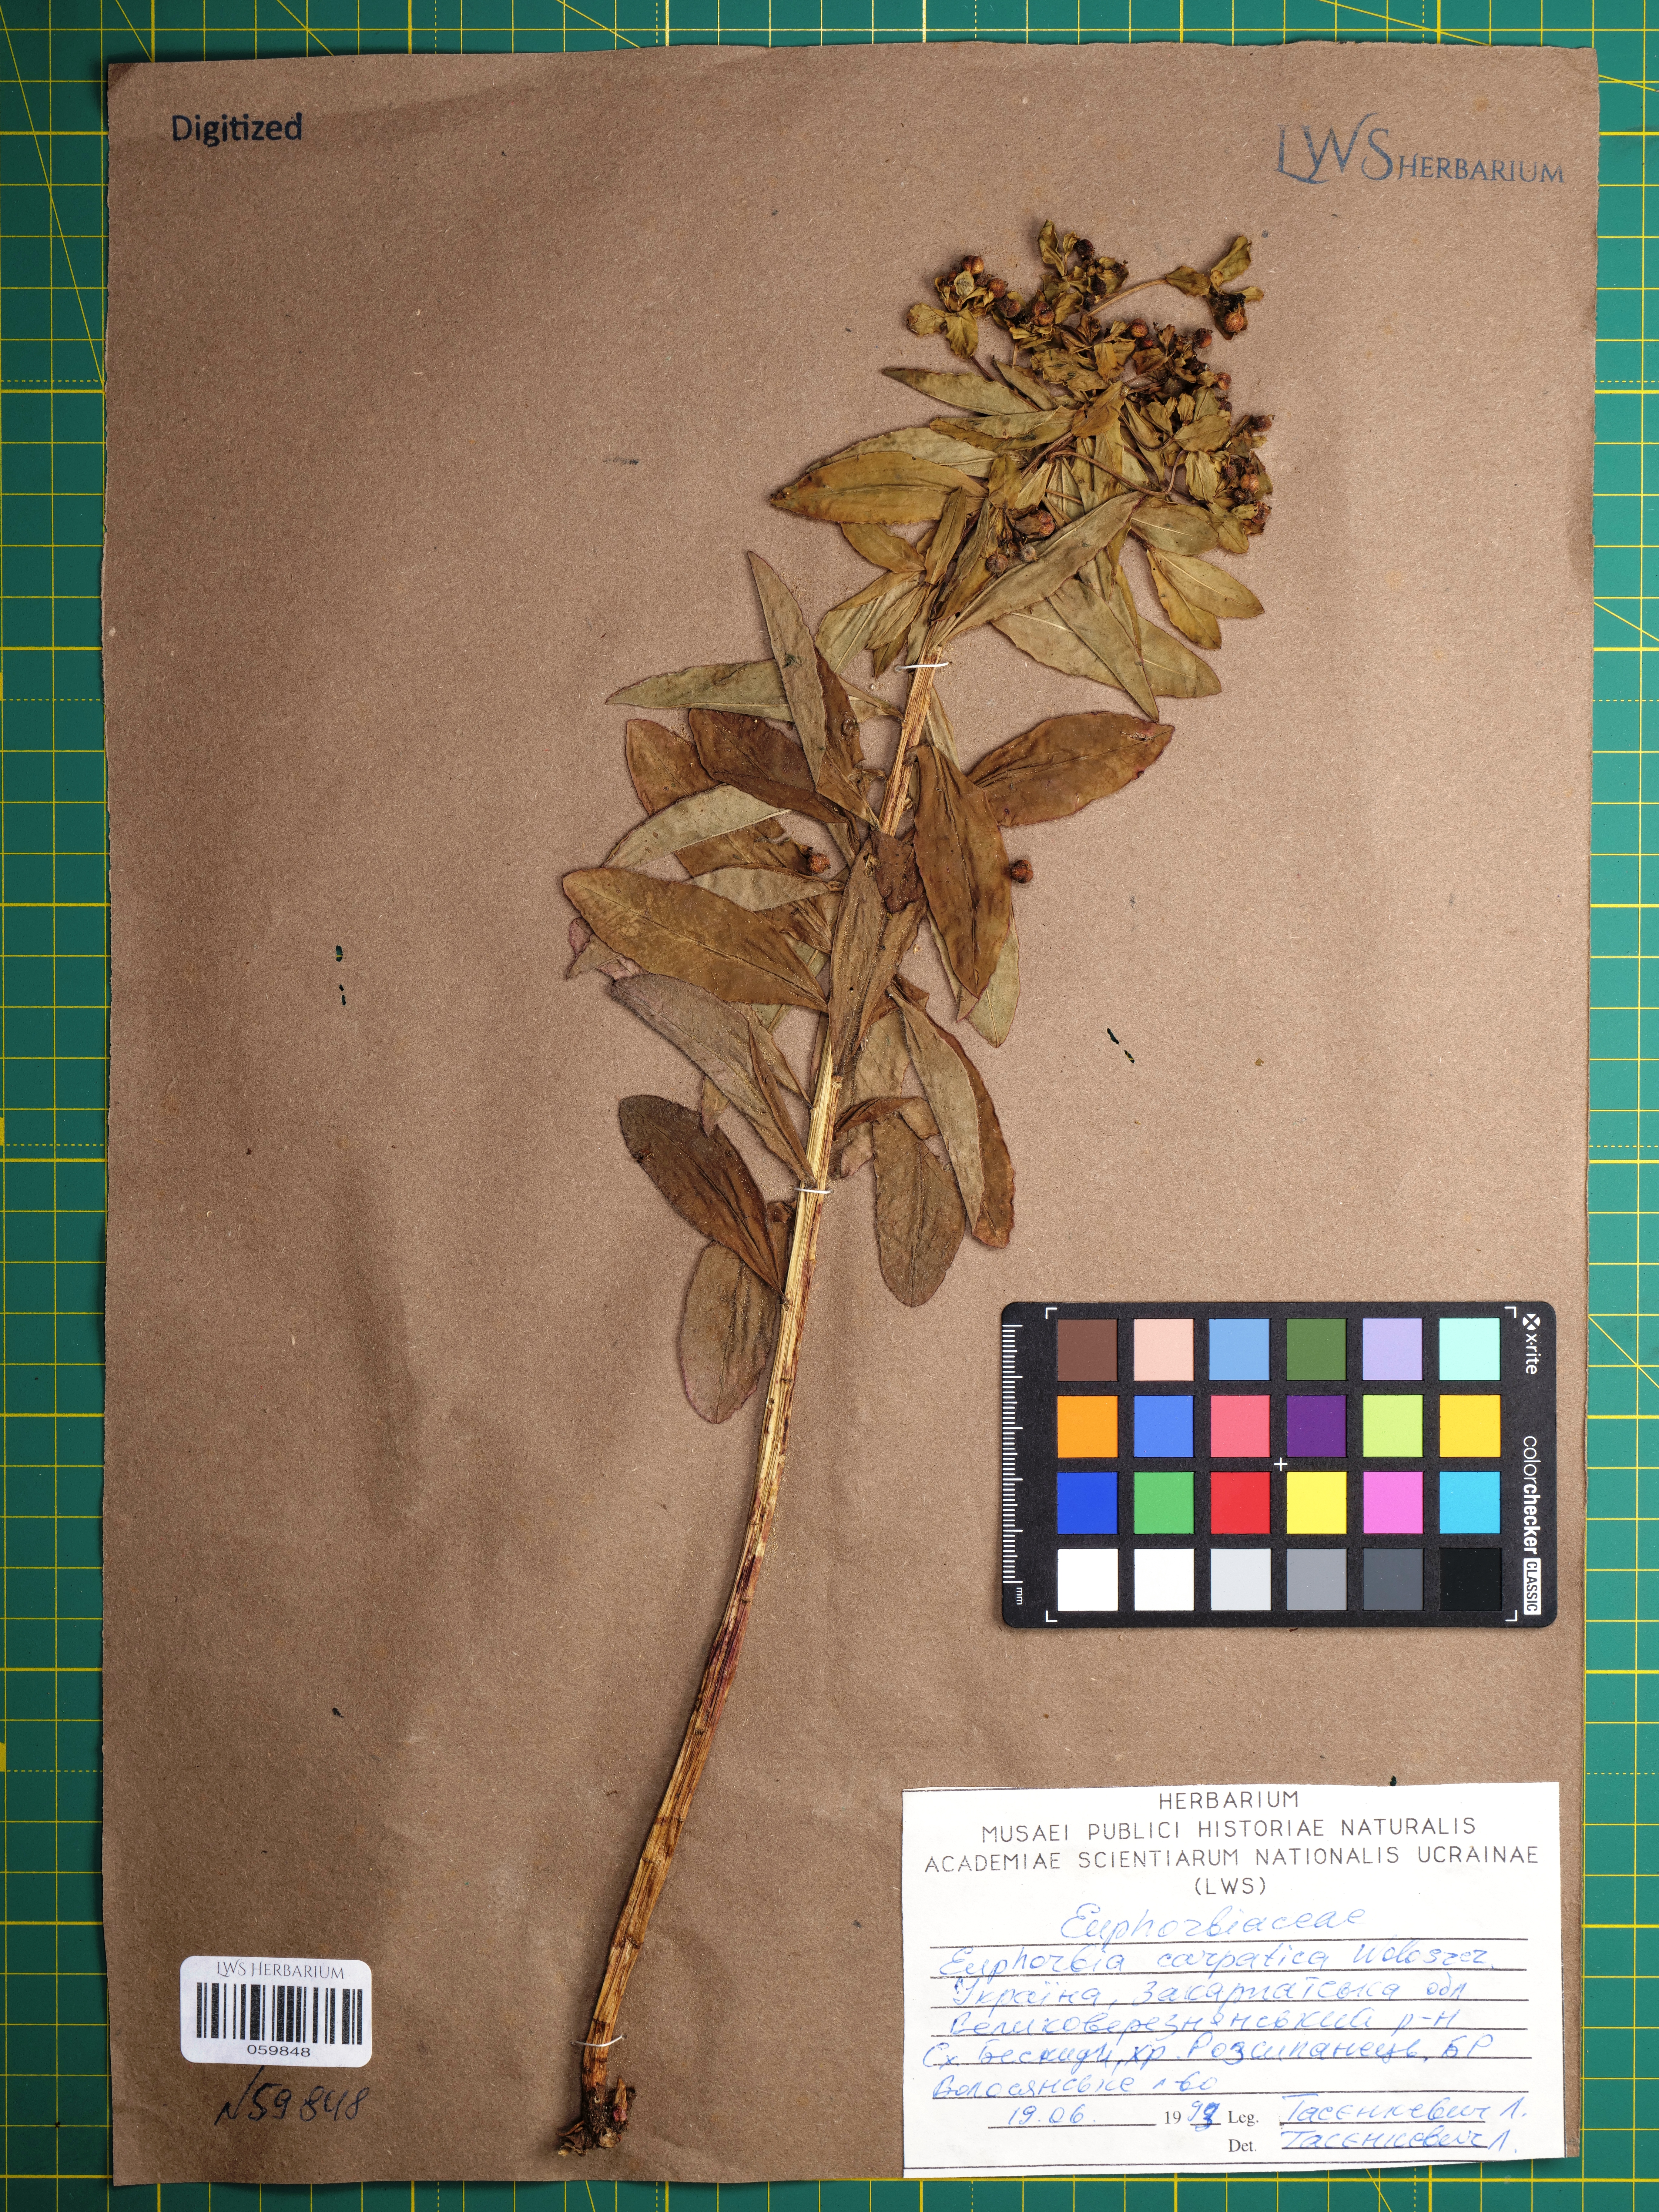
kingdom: Plantae
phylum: Tracheophyta
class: Magnoliopsida
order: Malpighiales
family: Euphorbiaceae
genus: Euphorbia
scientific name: Euphorbia carpatica
